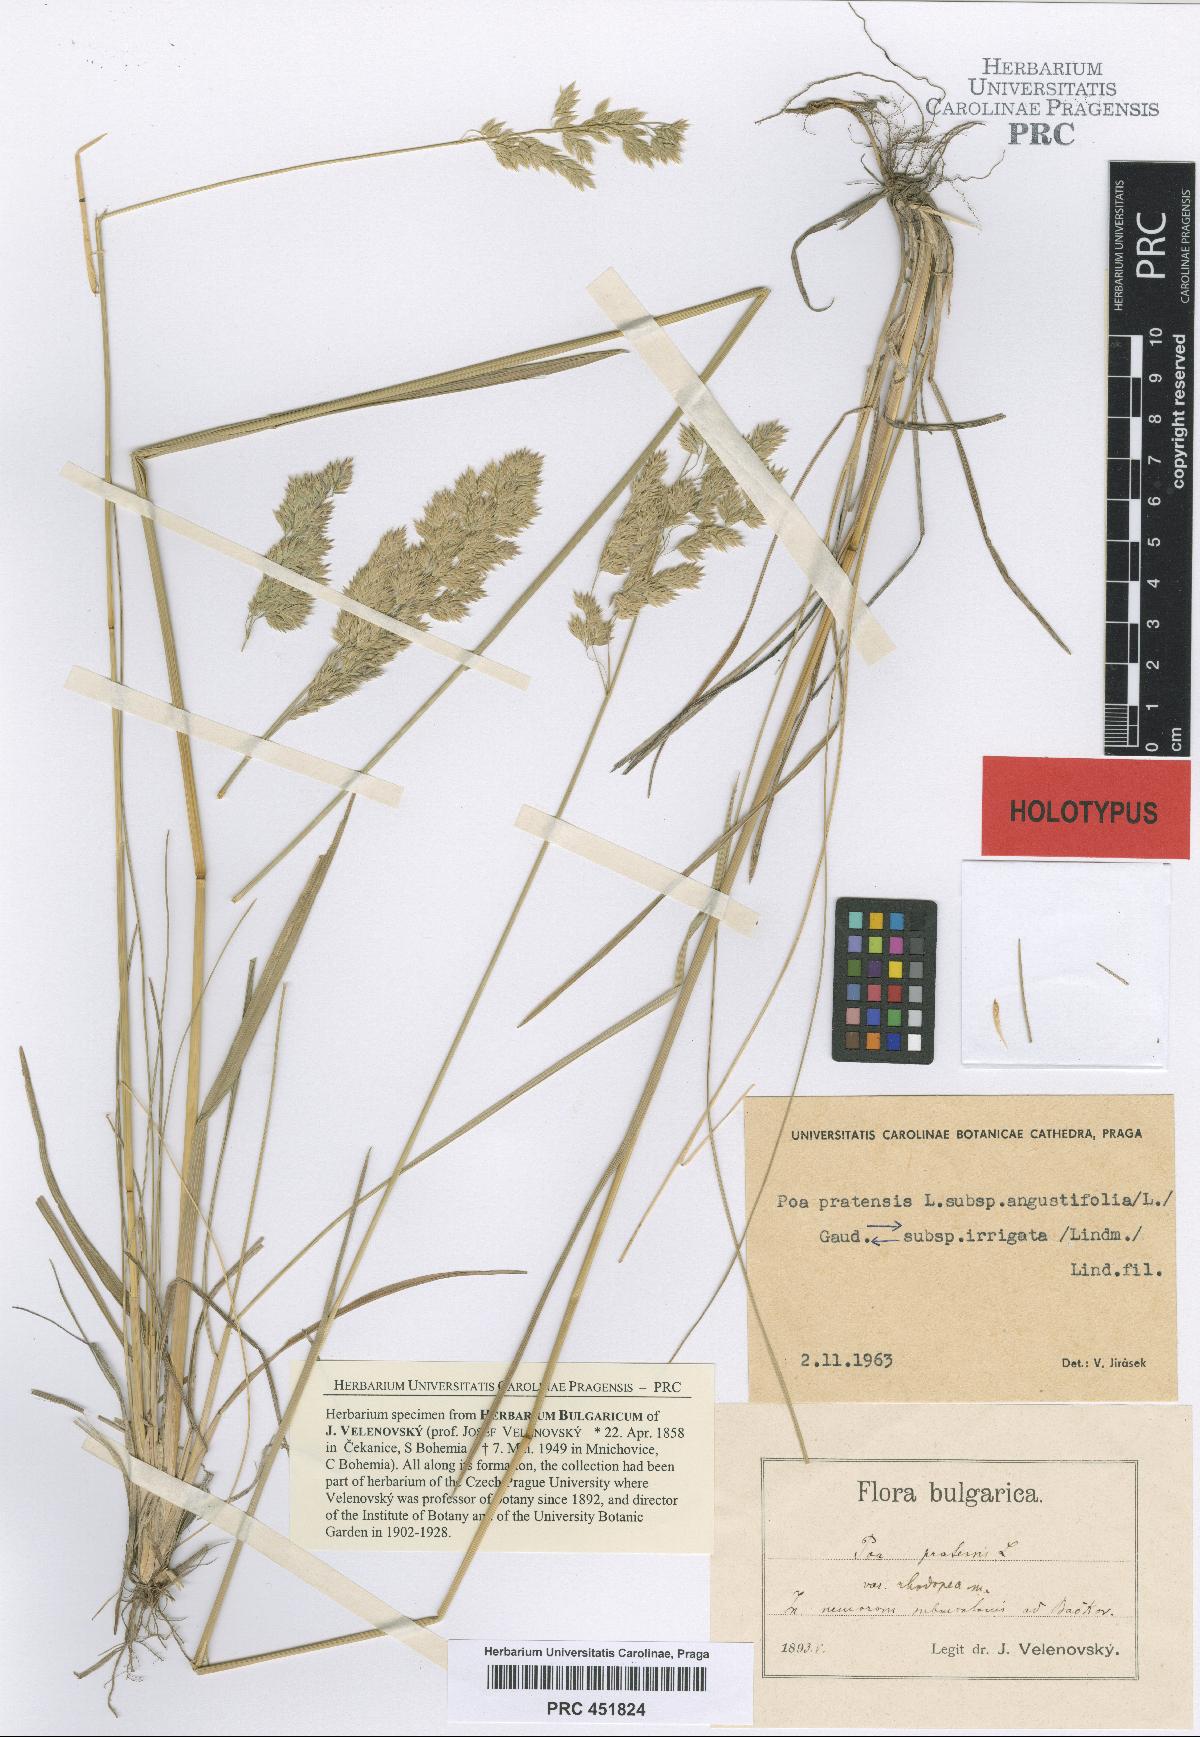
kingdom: Plantae
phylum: Tracheophyta
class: Liliopsida
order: Poales
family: Poaceae
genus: Poa
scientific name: Poa pratensis
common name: Kentucky bluegrass
